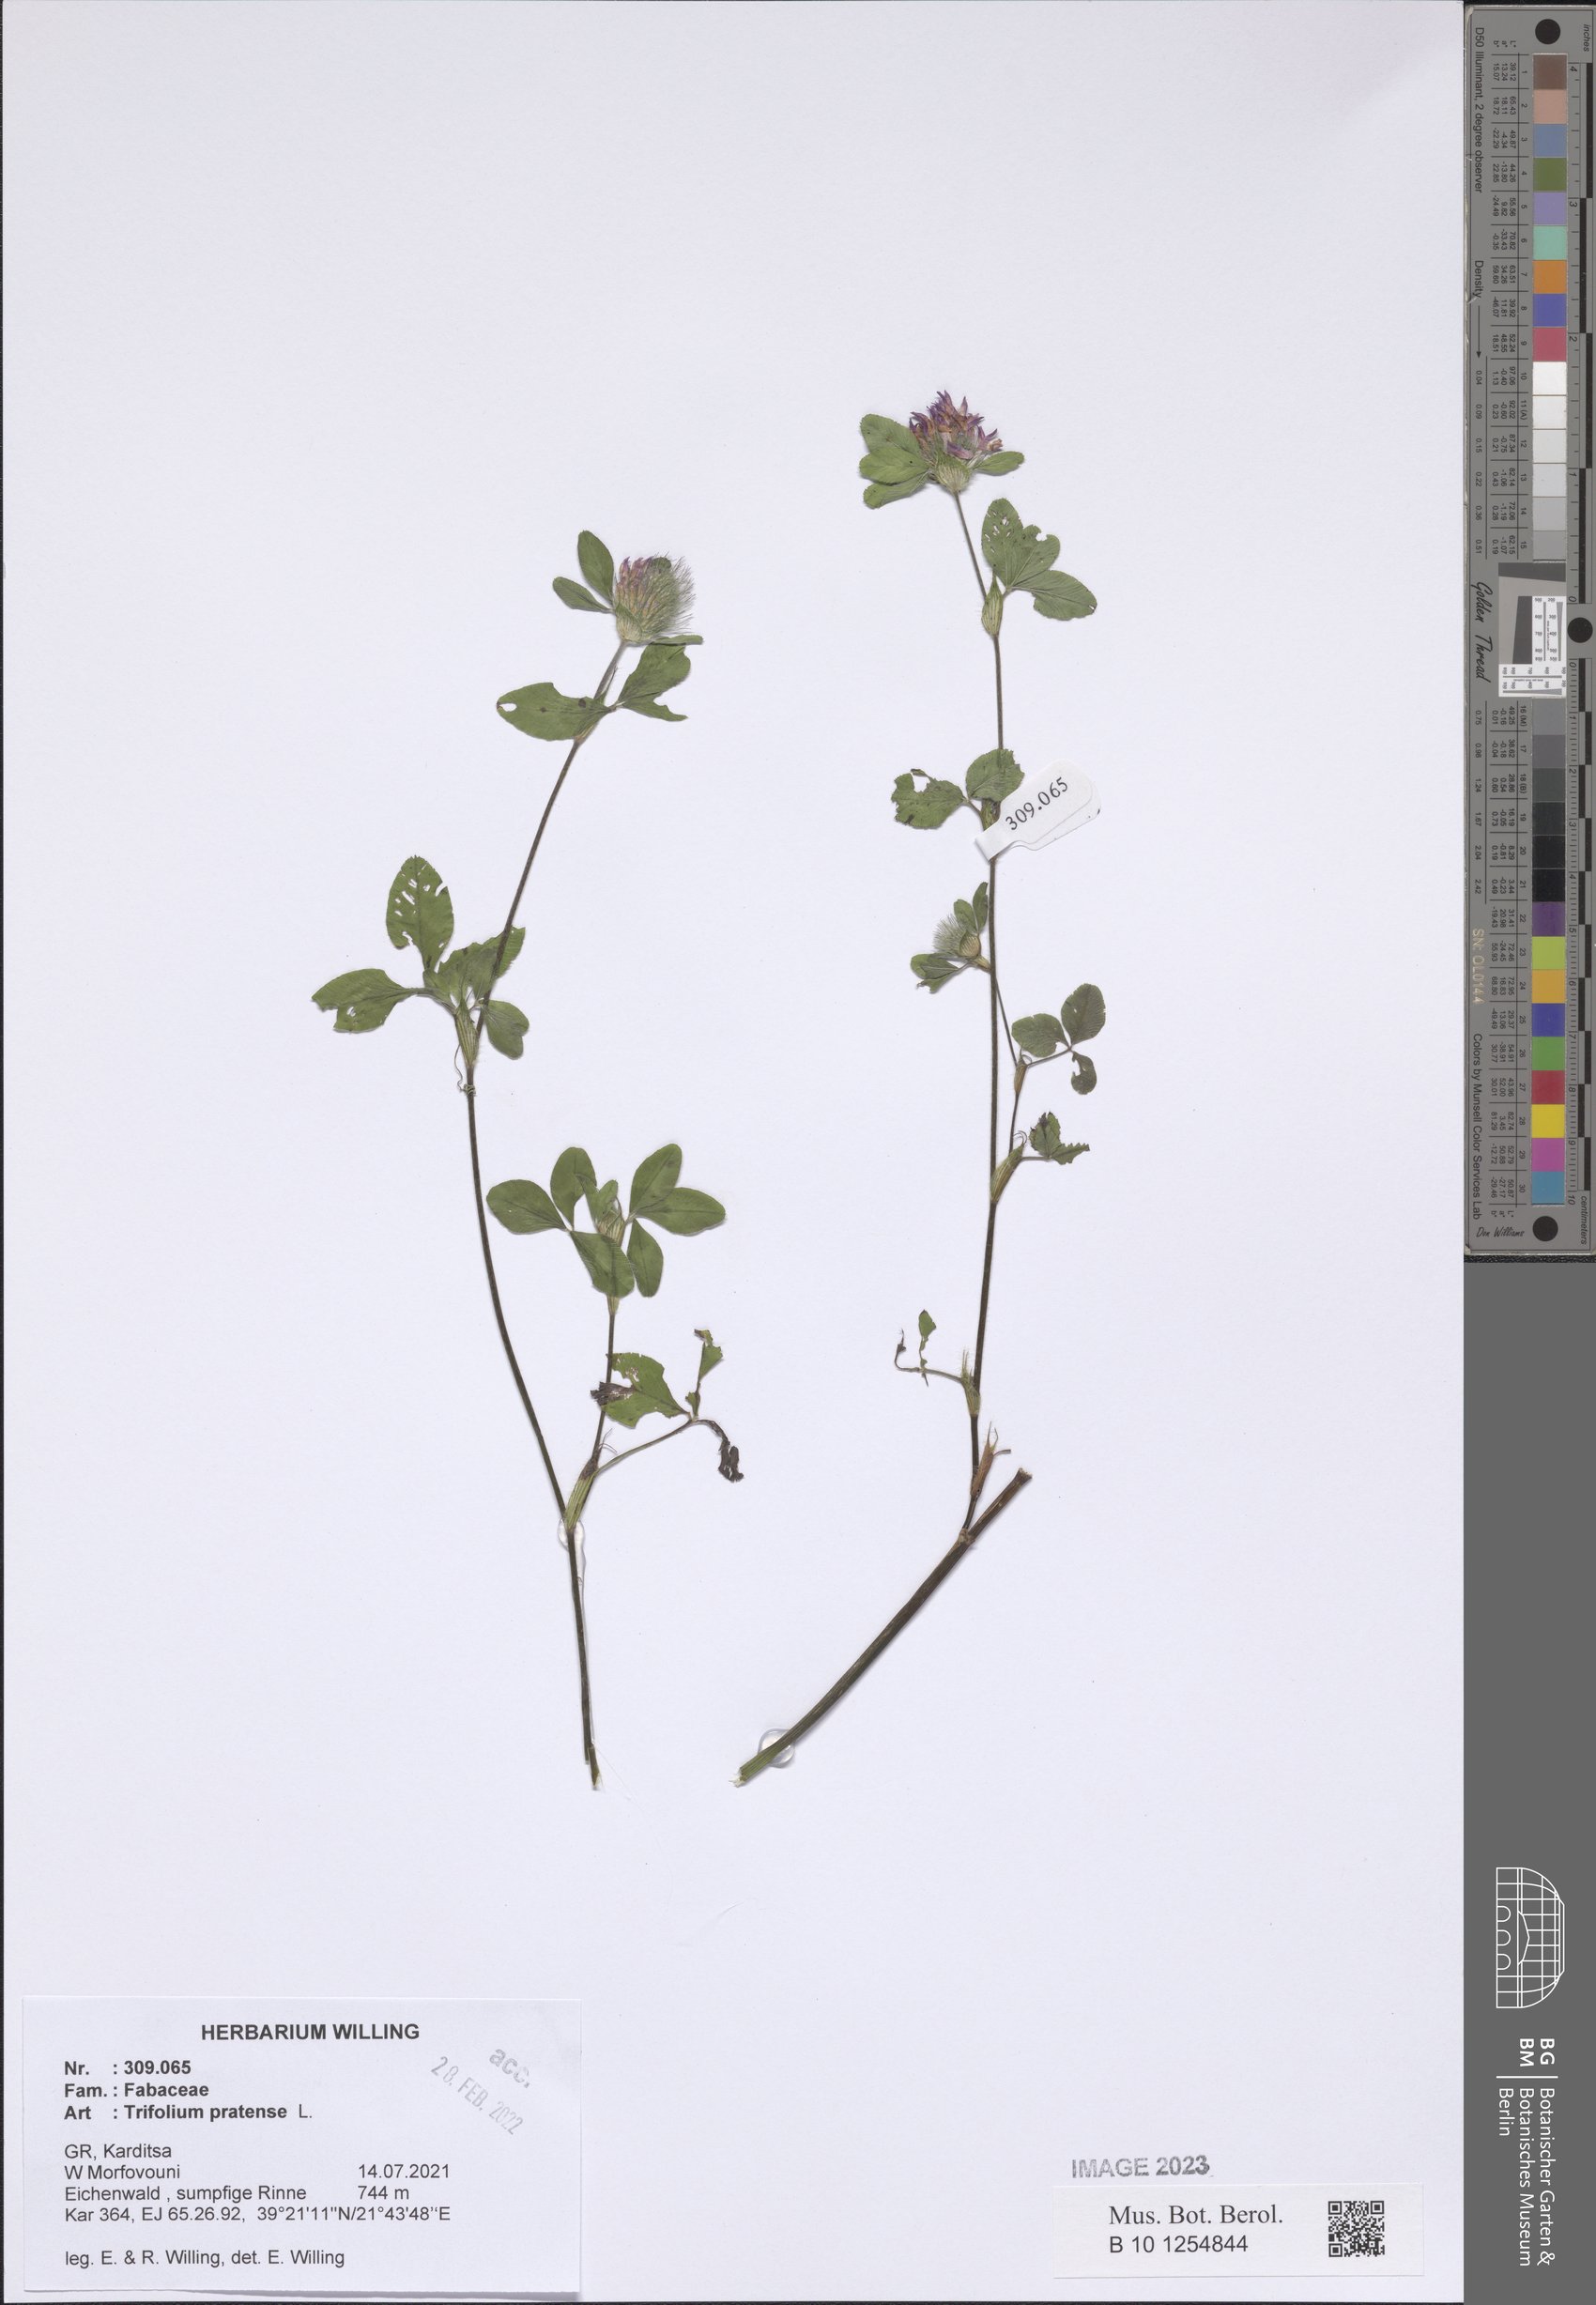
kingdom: Plantae
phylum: Tracheophyta
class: Magnoliopsida
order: Fabales
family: Fabaceae
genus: Trifolium
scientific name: Trifolium pratense
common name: Red clover
